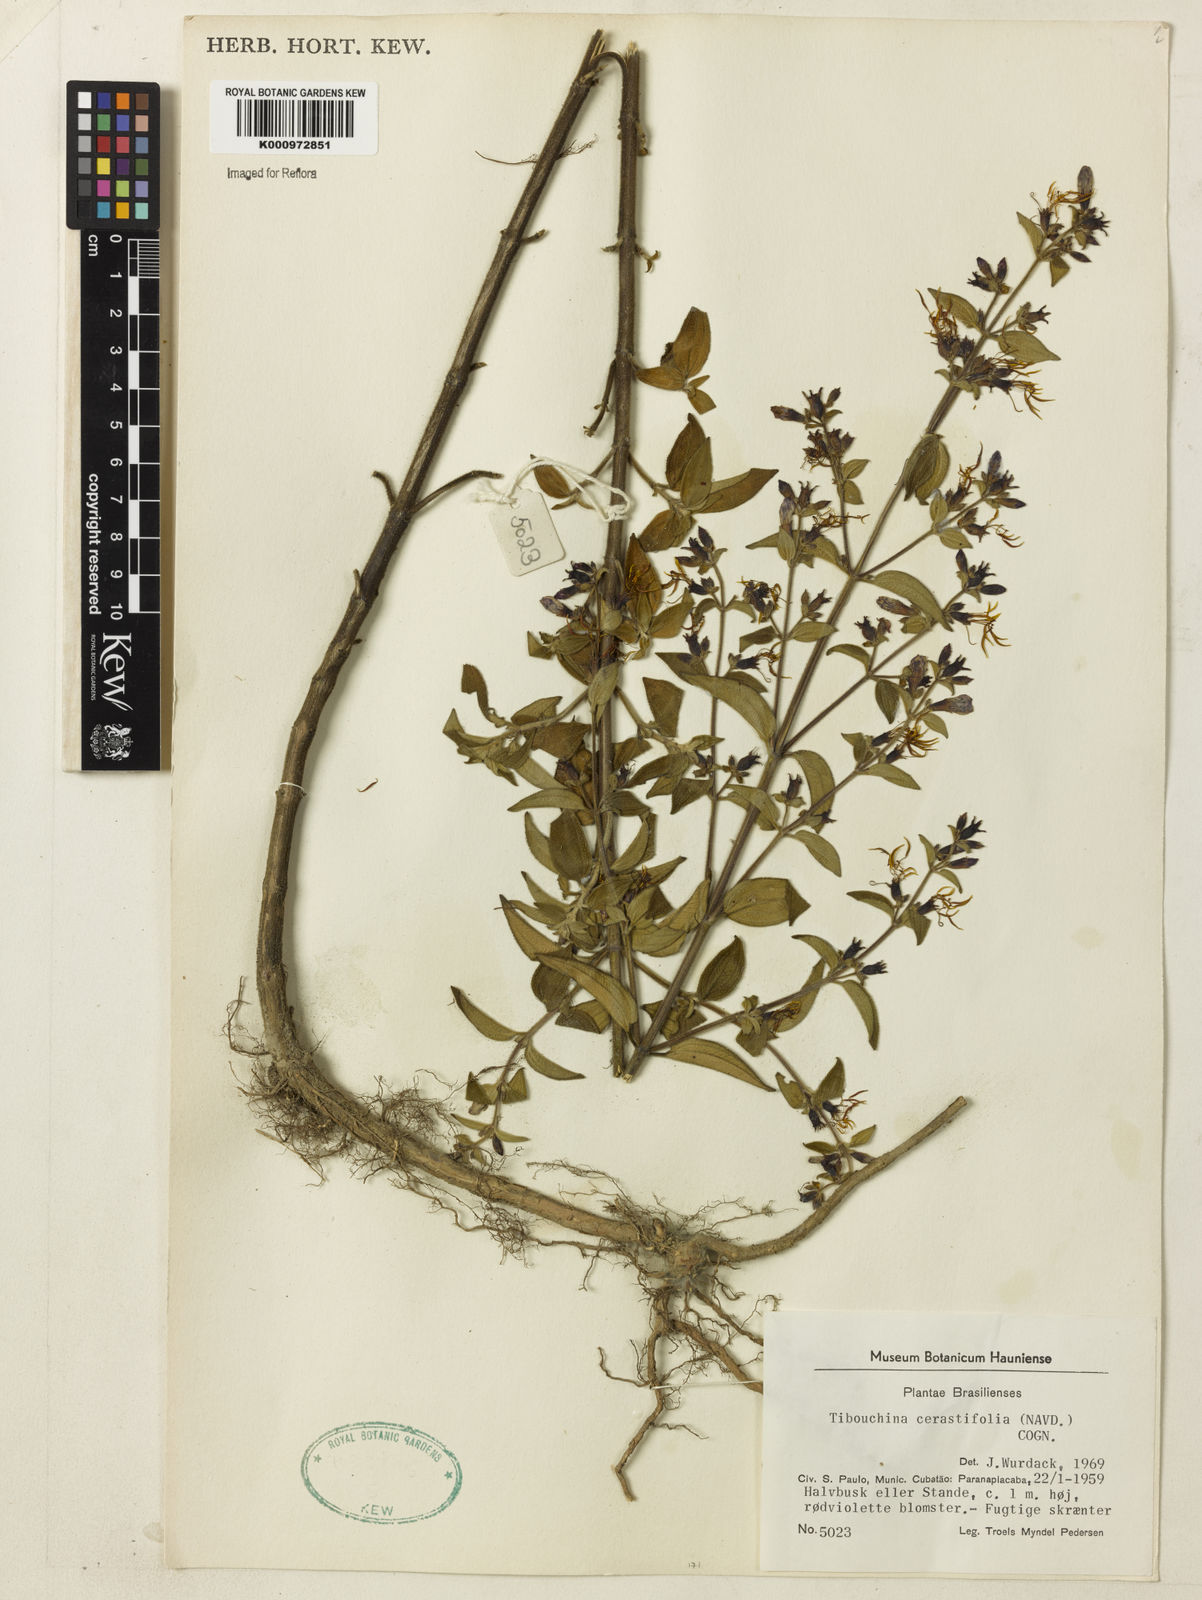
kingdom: Plantae
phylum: Tracheophyta
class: Magnoliopsida
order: Myrtales
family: Melastomataceae
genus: Chaetogastra
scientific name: Chaetogastra cerastifolia
